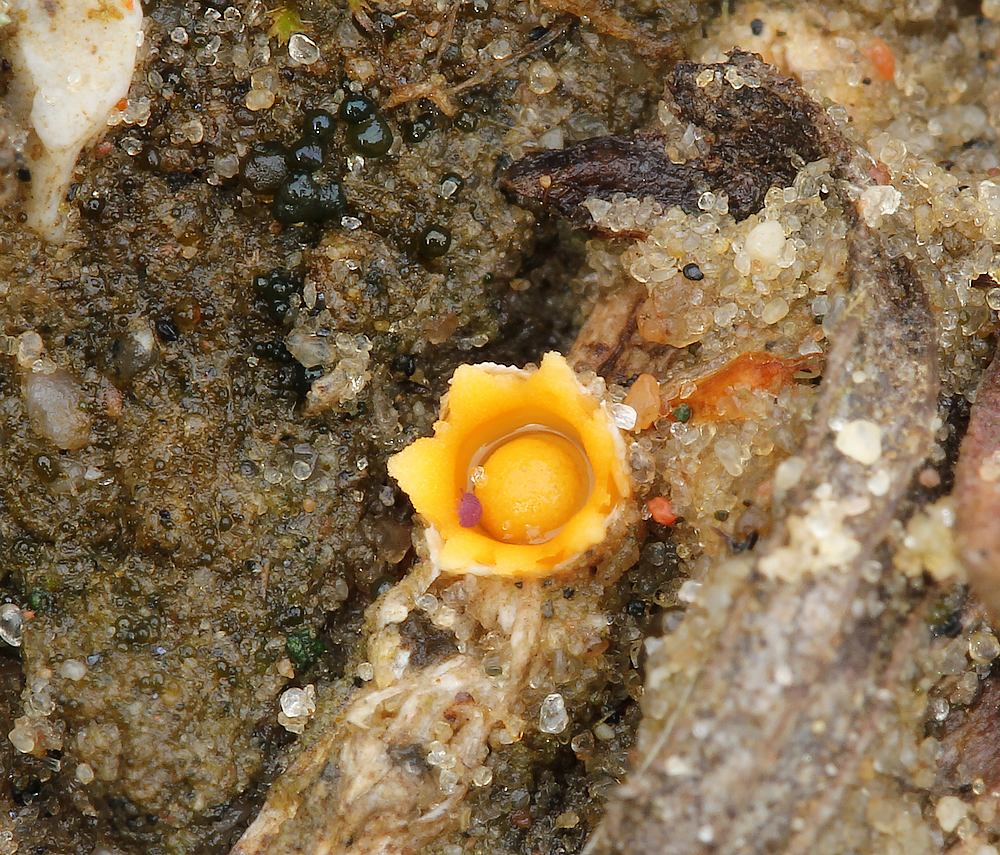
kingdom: Fungi
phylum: Basidiomycota
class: Agaricomycetes
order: Geastrales
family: Geastraceae
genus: Sphaerobolus
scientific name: Sphaerobolus stellatus
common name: bombekaster
